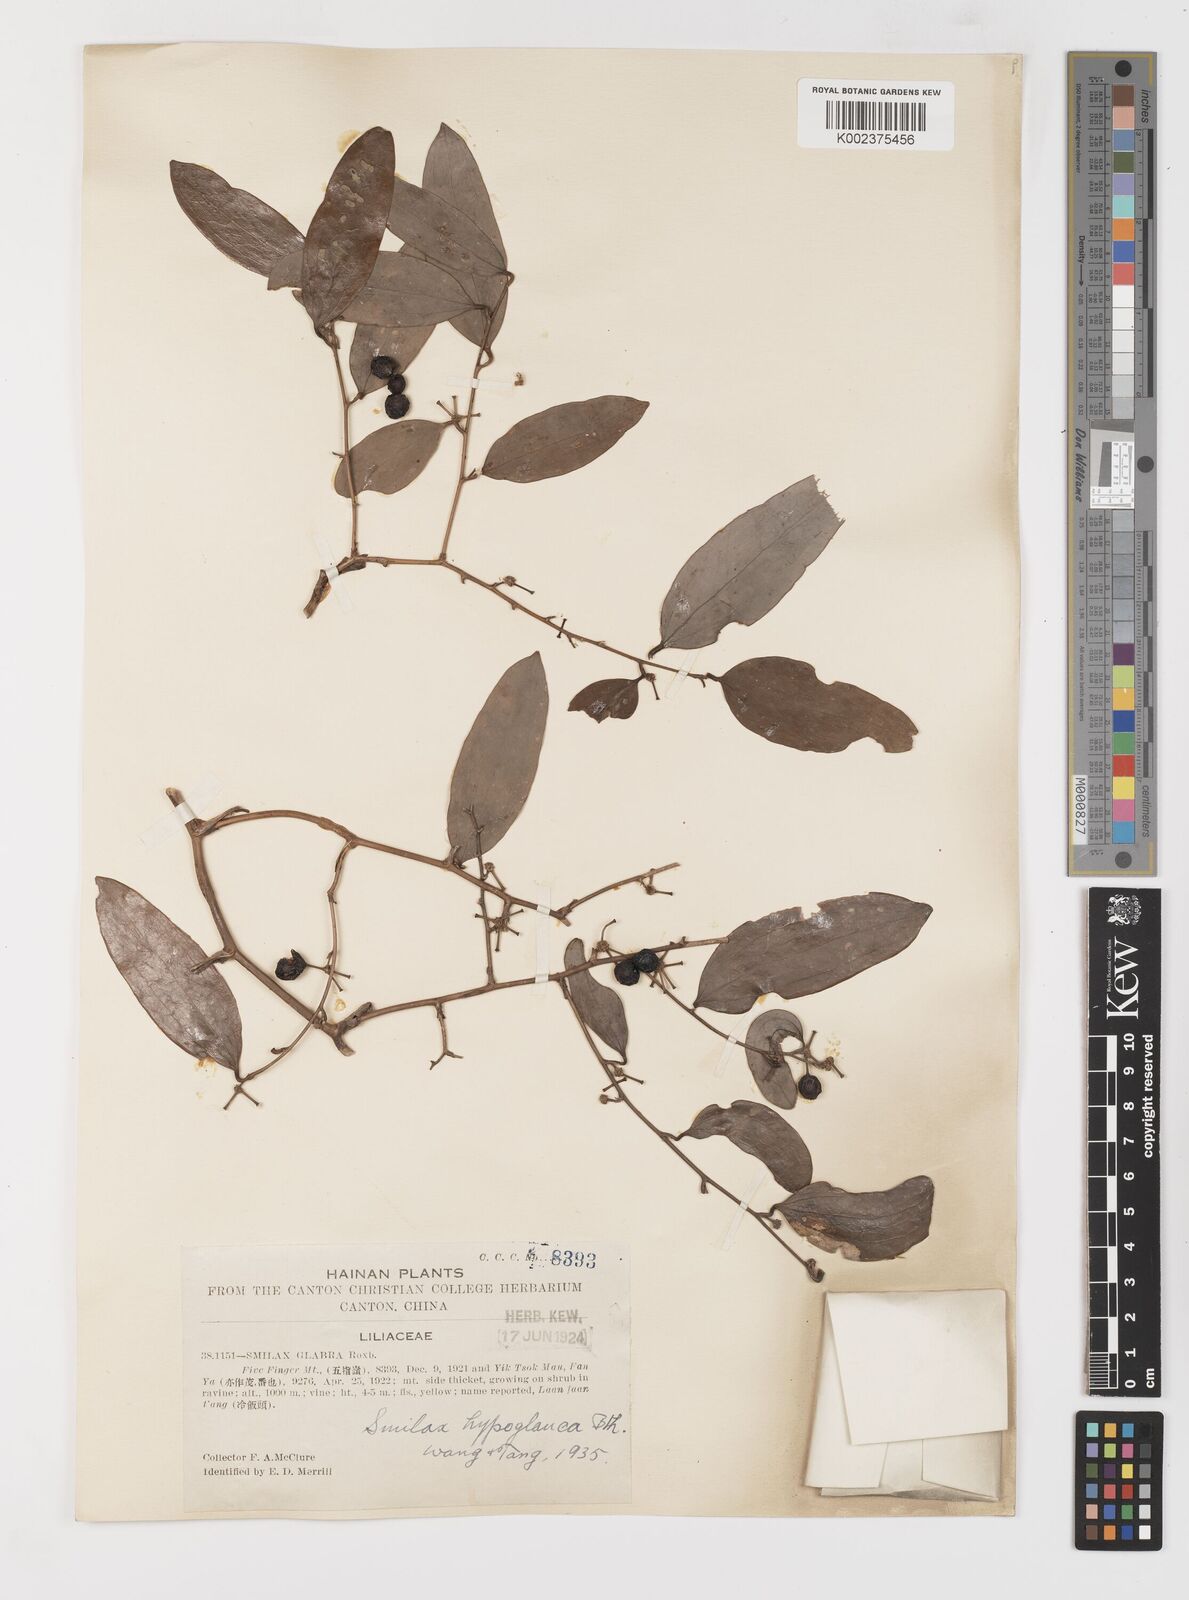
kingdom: Plantae
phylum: Tracheophyta
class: Liliopsida
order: Liliales
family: Smilacaceae
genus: Smilax
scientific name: Smilax hypoglauca
